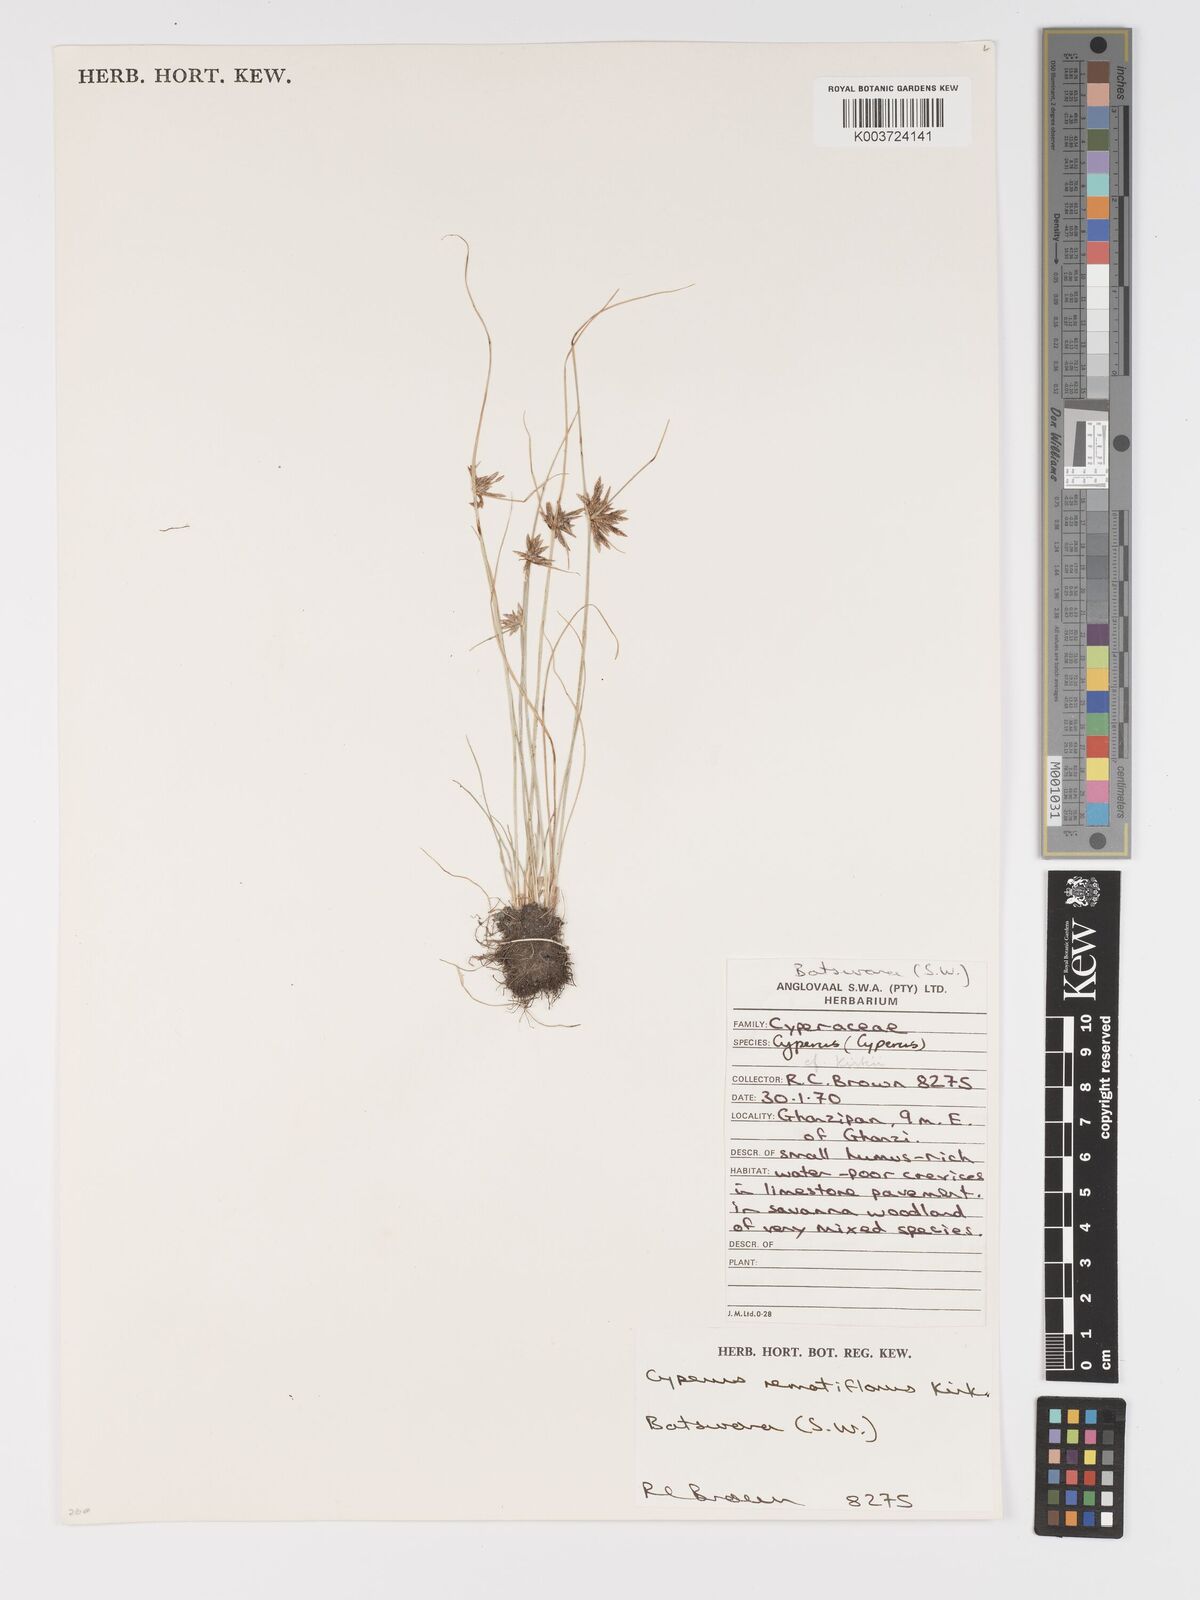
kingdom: Plantae
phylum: Tracheophyta
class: Liliopsida
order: Poales
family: Cyperaceae
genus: Cyperus
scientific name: Cyperus remotiflorus
